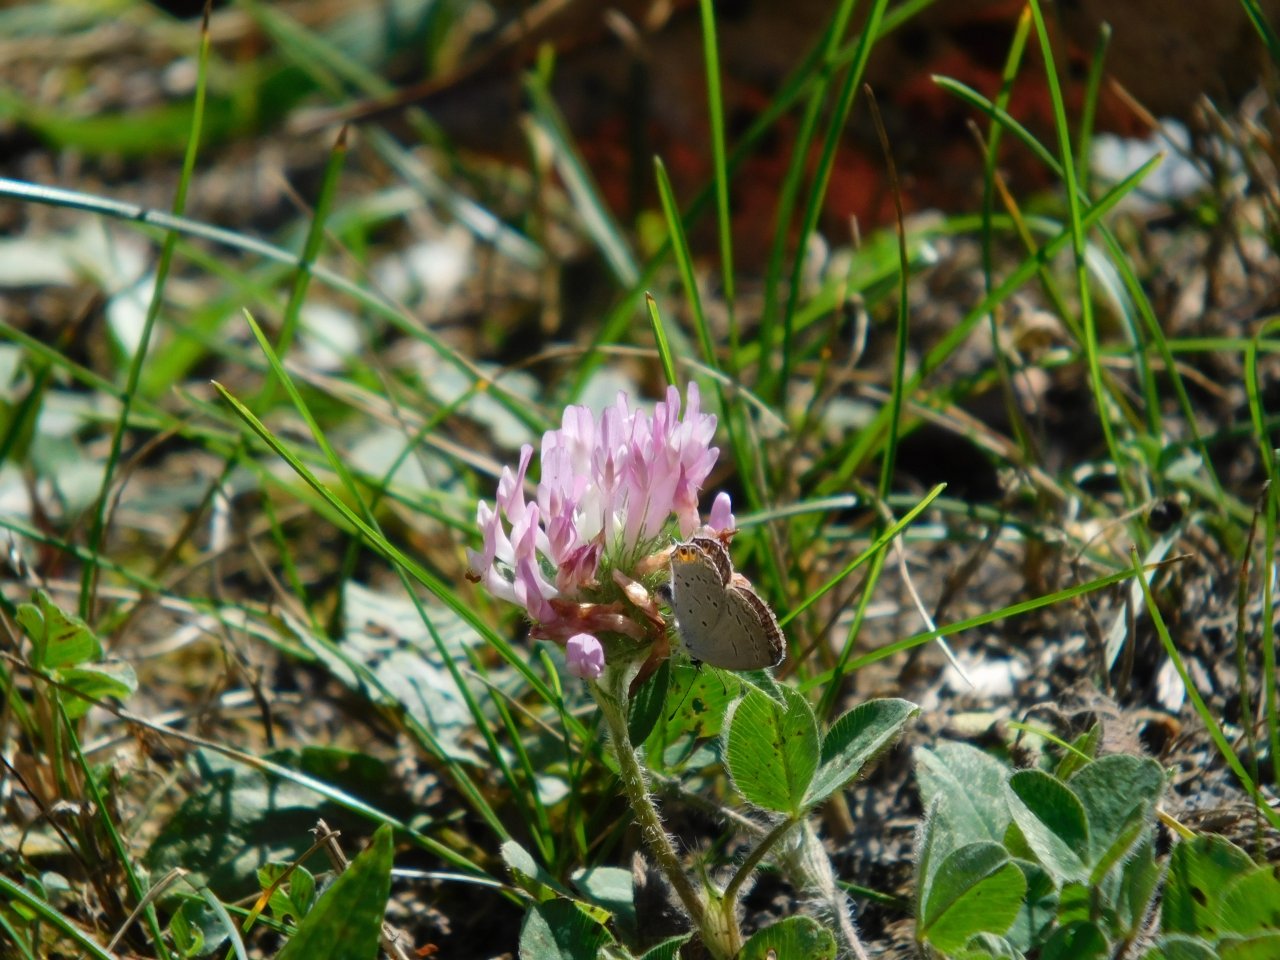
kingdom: Animalia
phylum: Arthropoda
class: Insecta
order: Lepidoptera
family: Lycaenidae
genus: Elkalyce
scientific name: Elkalyce comyntas
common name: Eastern Tailed-Blue
